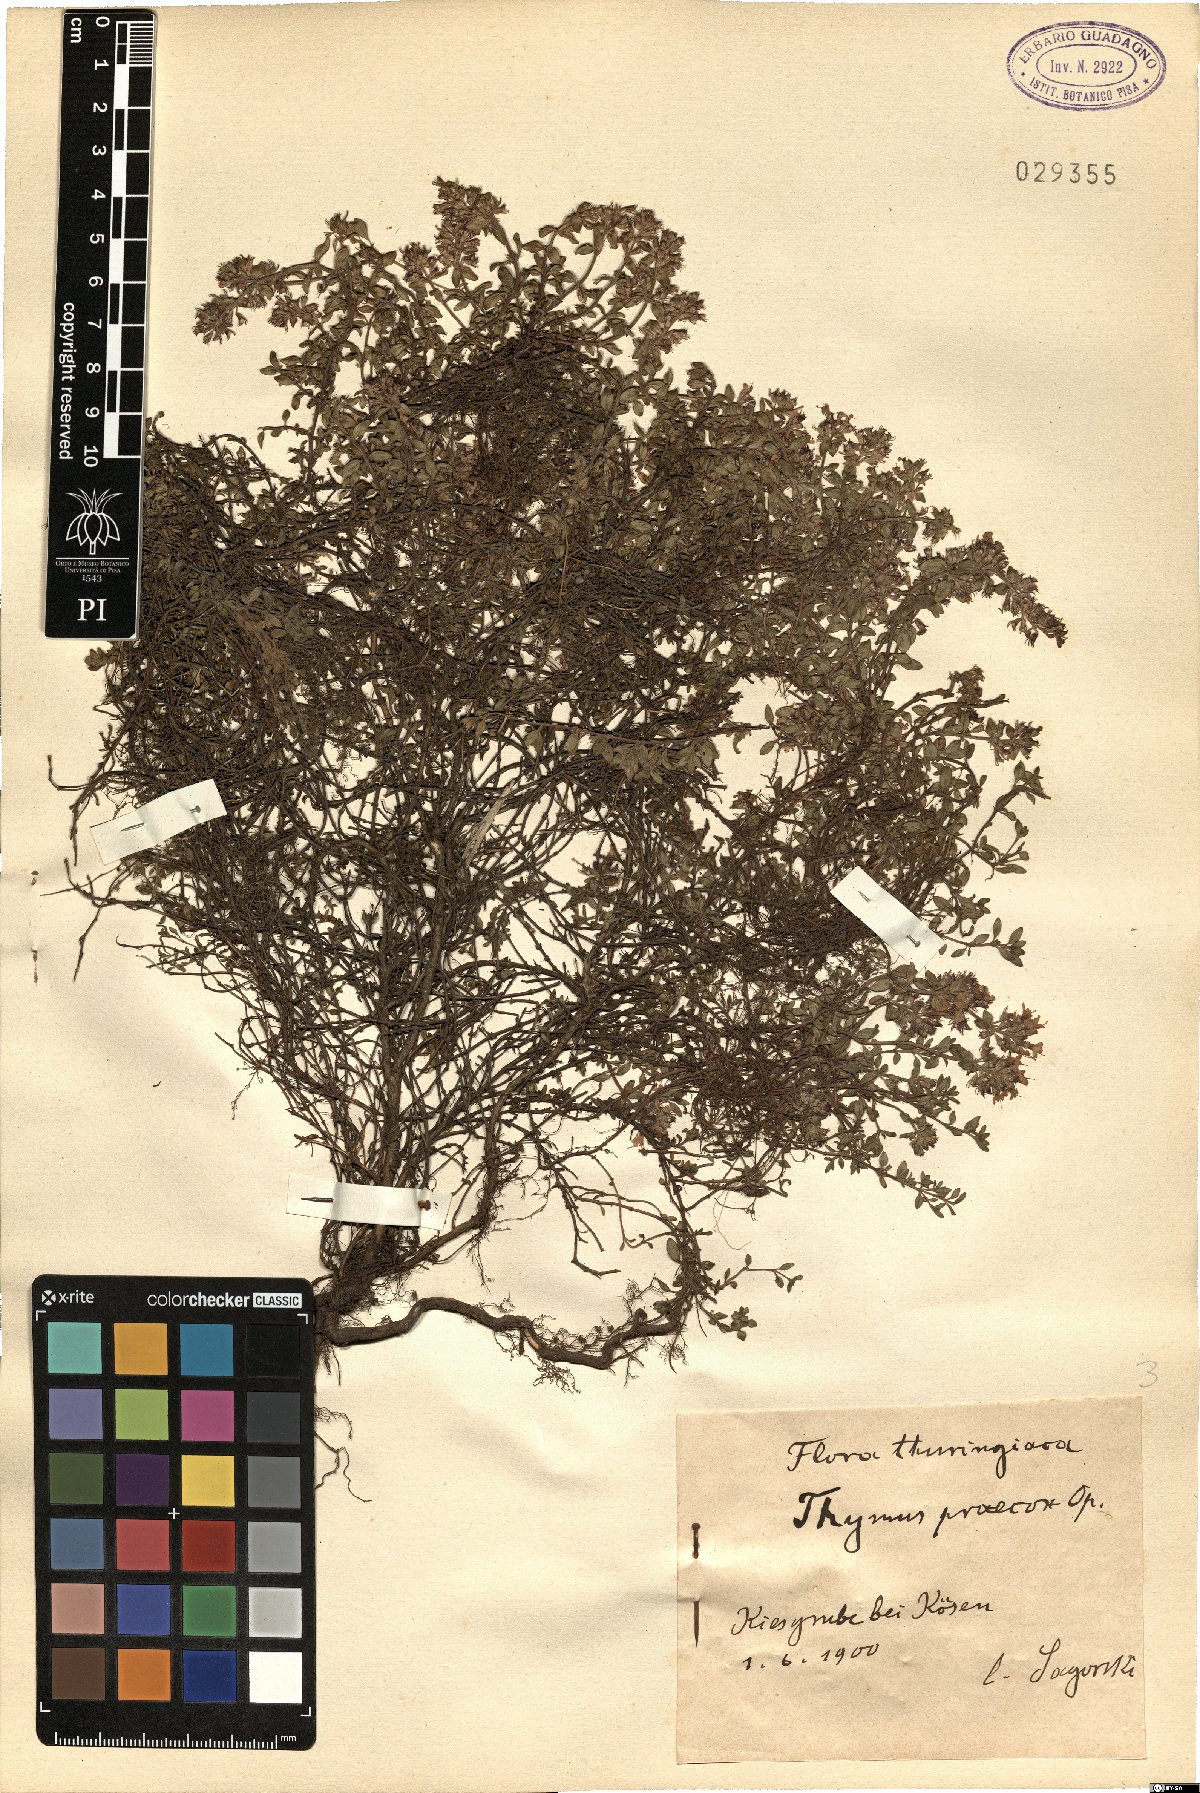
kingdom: Plantae
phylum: Tracheophyta
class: Magnoliopsida
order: Lamiales
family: Lamiaceae
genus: Thymus
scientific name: Thymus praecox
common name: Wild thyme
